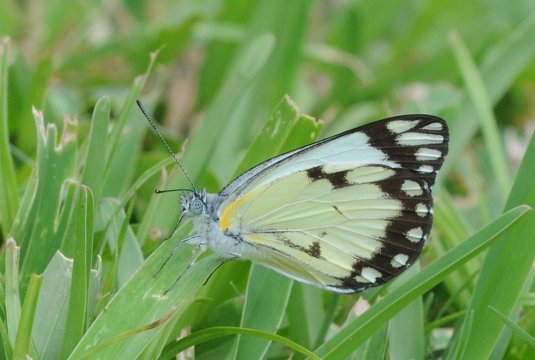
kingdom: Animalia
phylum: Arthropoda
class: Insecta
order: Lepidoptera
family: Pieridae
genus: Belenois
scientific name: Belenois creona
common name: African Caper
